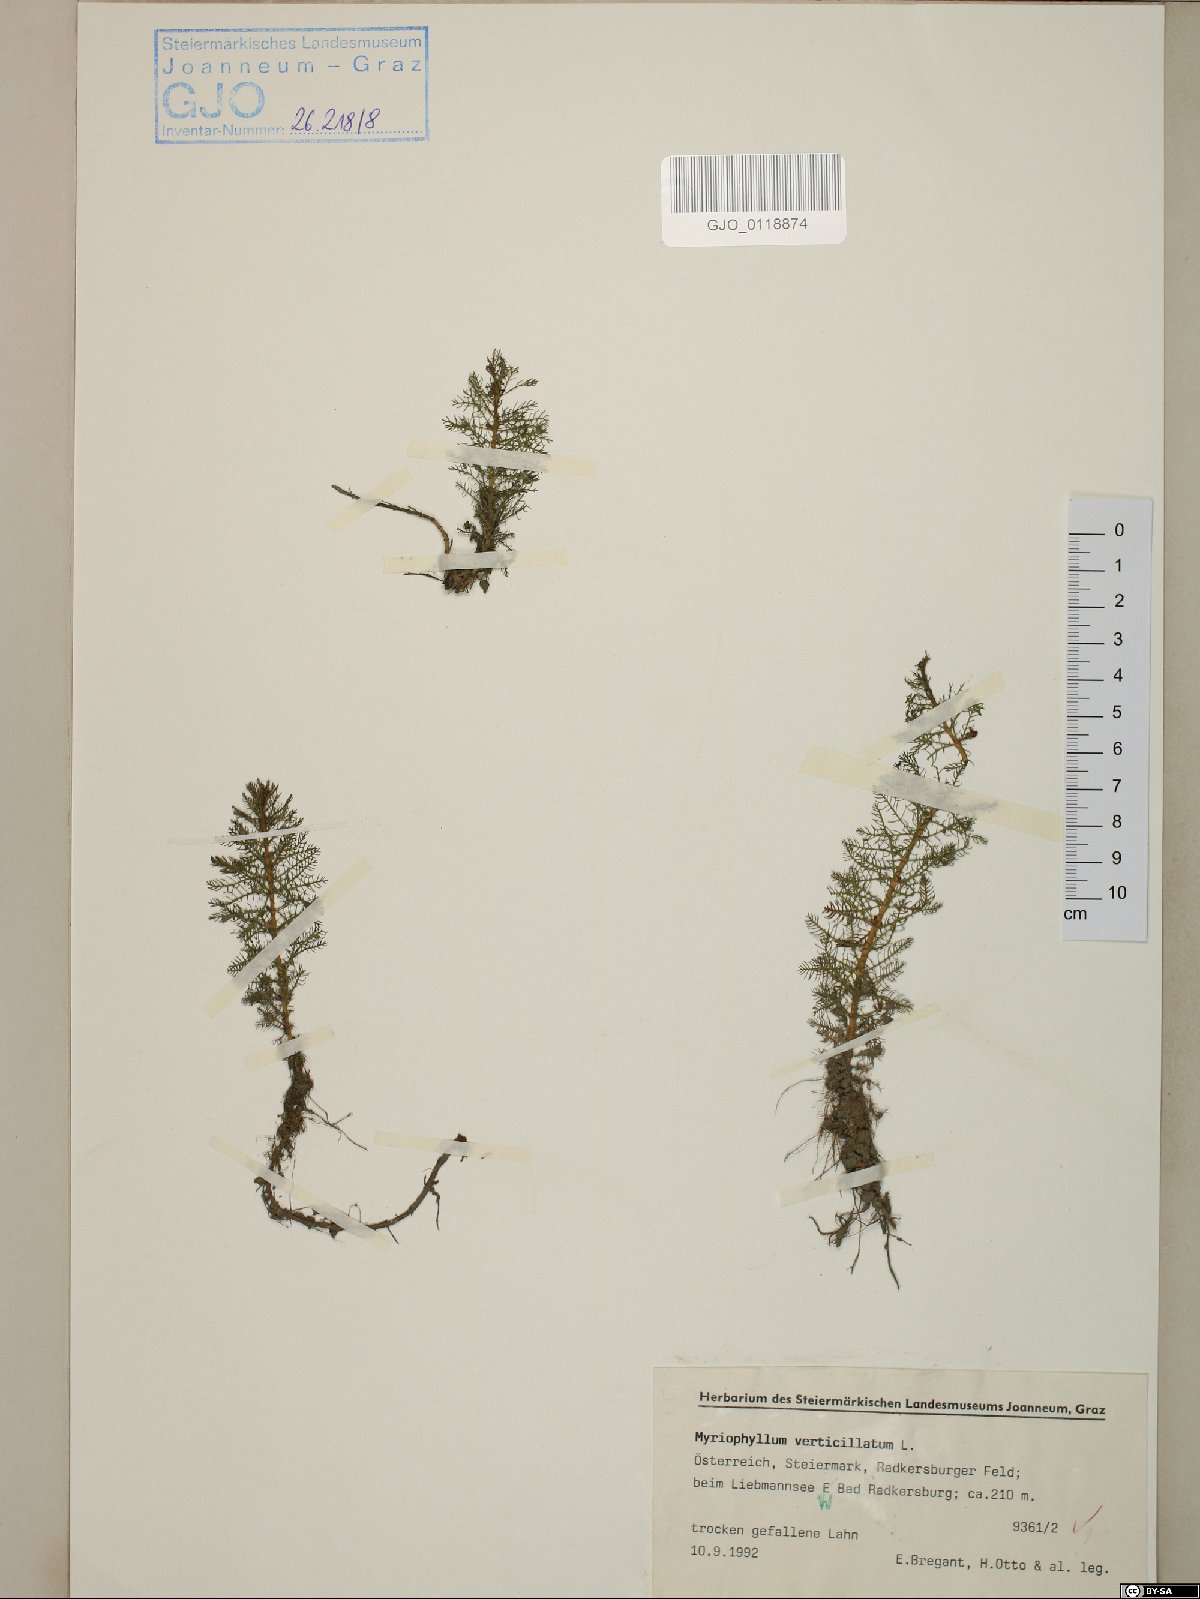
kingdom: Plantae
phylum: Tracheophyta
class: Magnoliopsida
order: Saxifragales
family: Haloragaceae
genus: Myriophyllum
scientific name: Myriophyllum verticillatum
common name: Whorled water-milfoil
